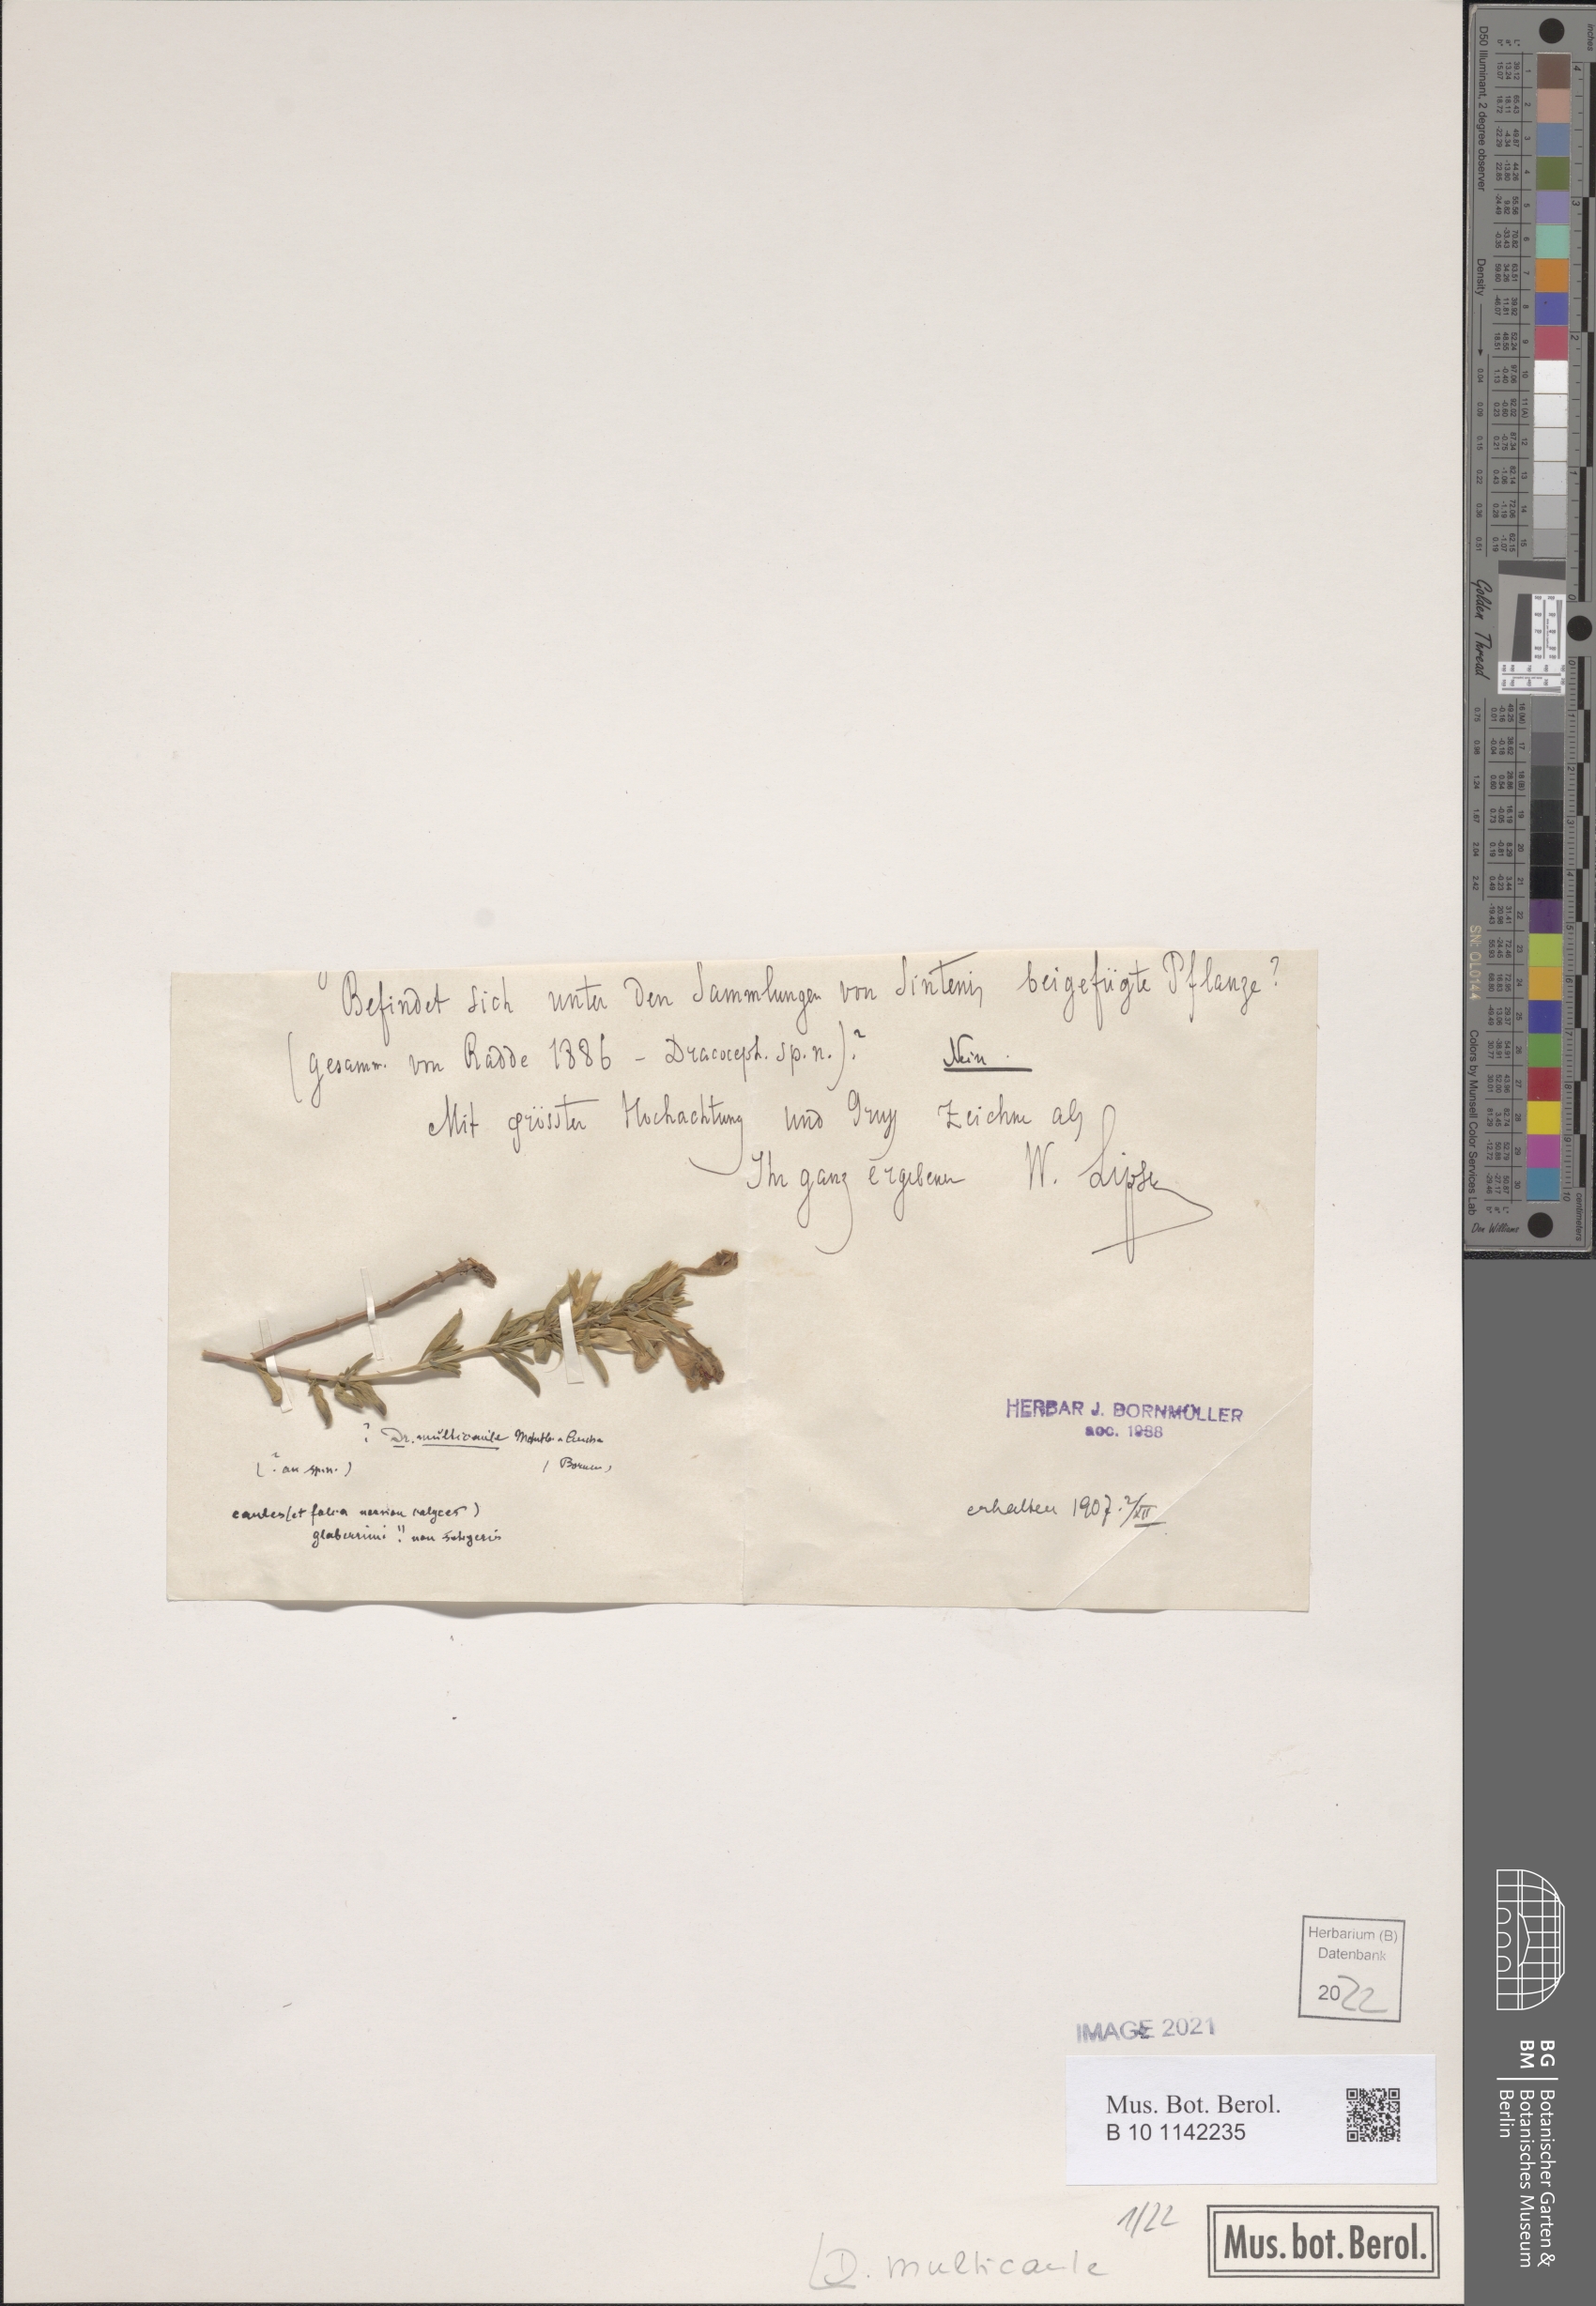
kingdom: Plantae
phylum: Tracheophyta
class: Magnoliopsida
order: Lamiales
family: Lamiaceae
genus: Dracocephalum
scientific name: Dracocephalum multicaule
